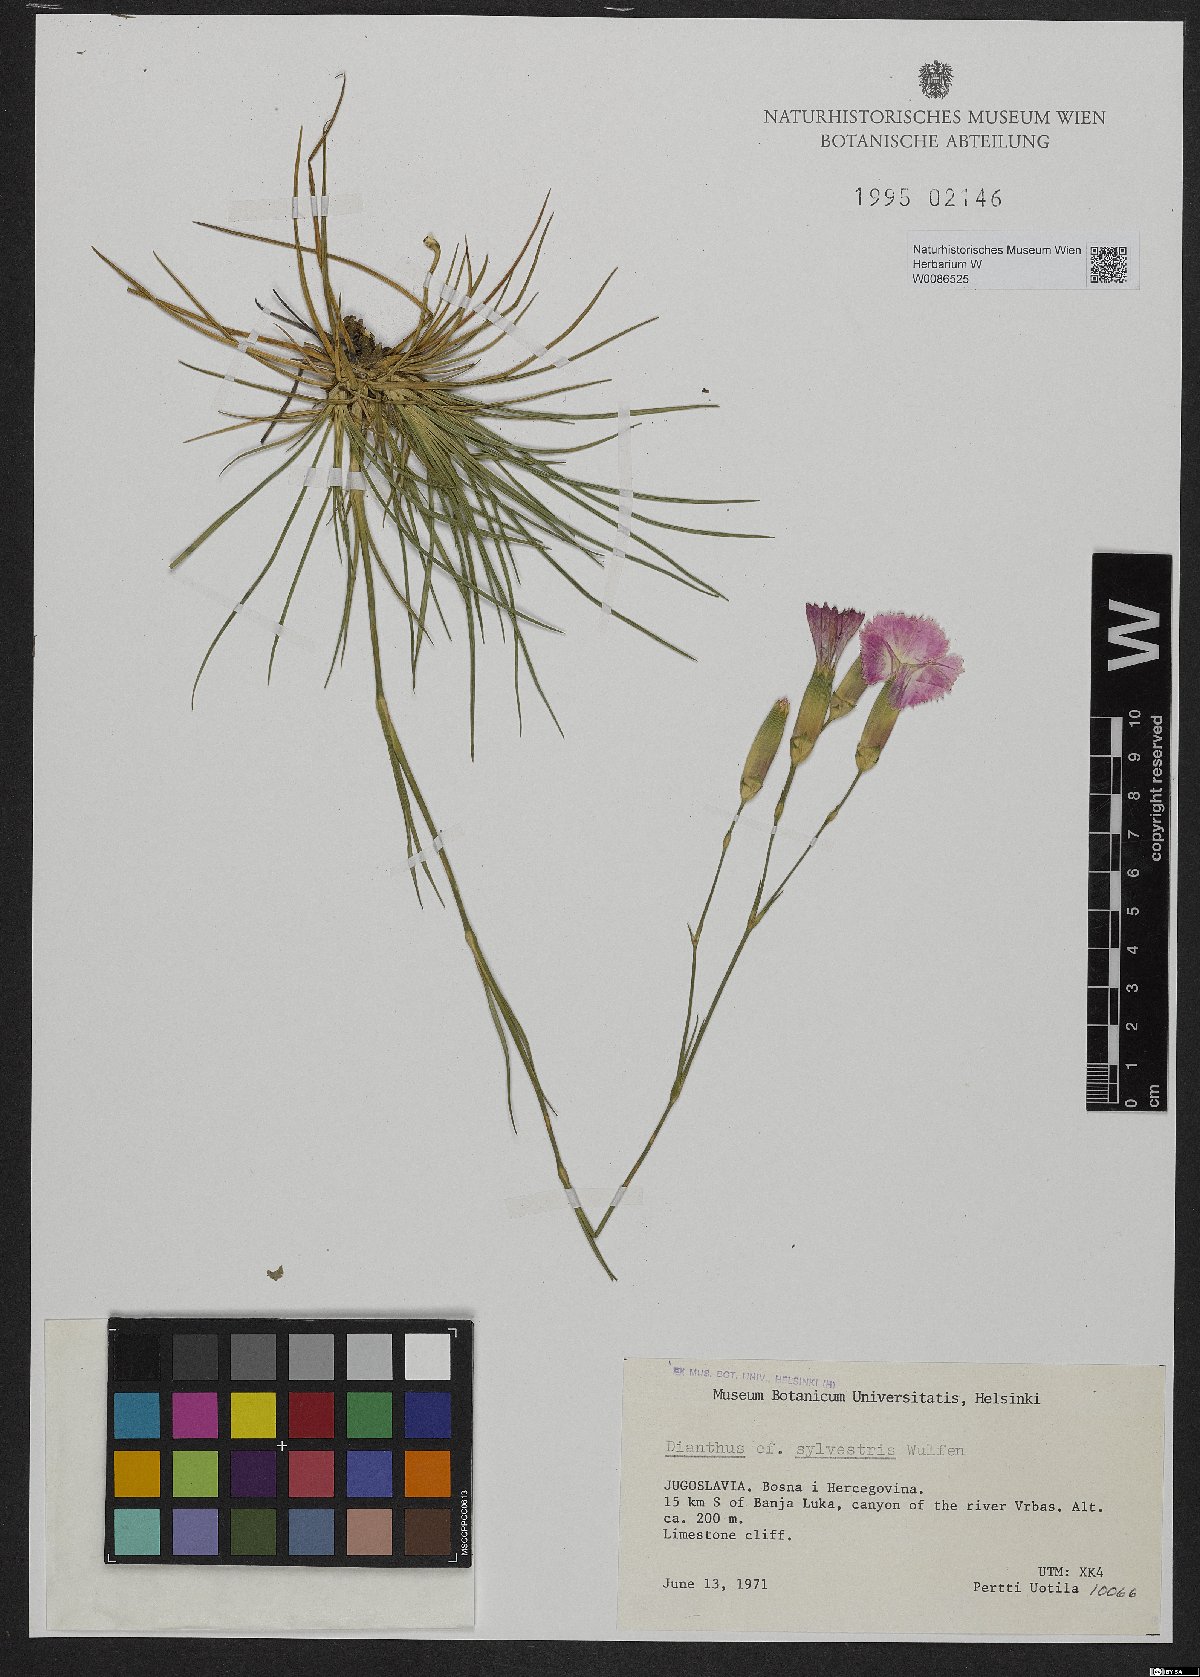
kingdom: Plantae
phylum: Tracheophyta
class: Magnoliopsida
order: Caryophyllales
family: Caryophyllaceae
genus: Dianthus
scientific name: Dianthus sylvestris
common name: Wood pink
